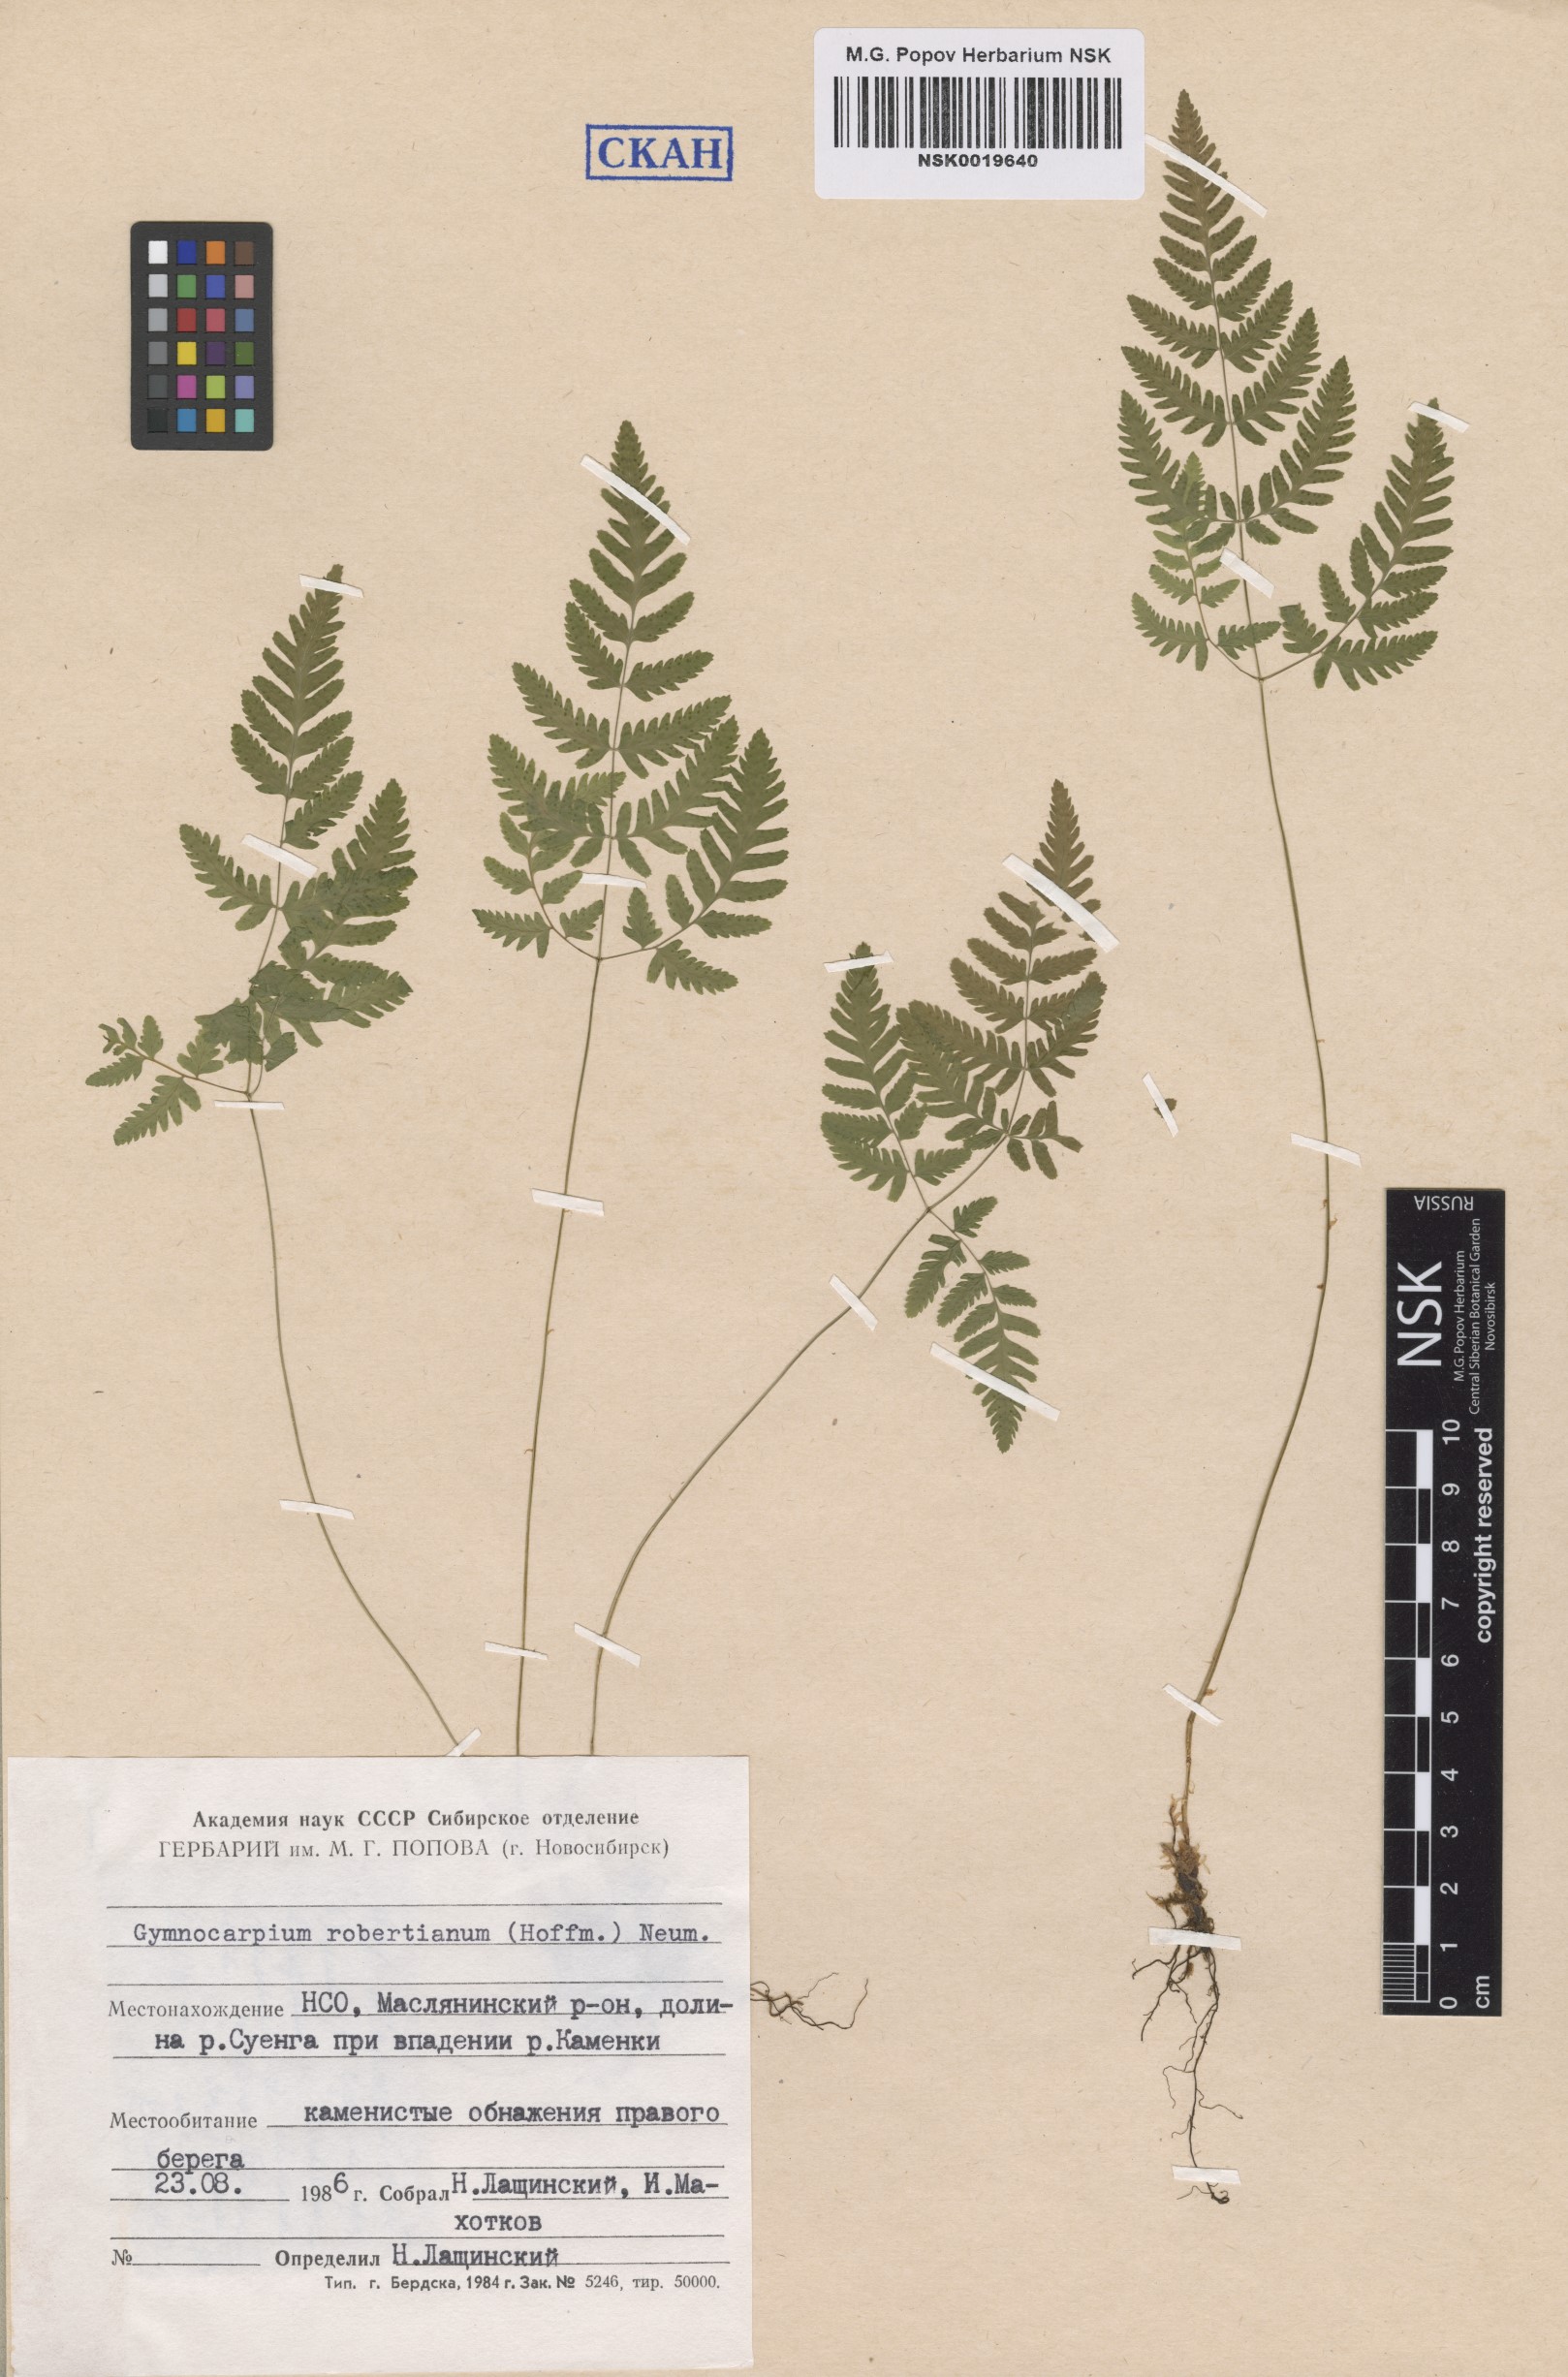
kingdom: Plantae
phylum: Tracheophyta
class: Polypodiopsida
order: Polypodiales
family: Cystopteridaceae
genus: Gymnocarpium
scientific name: Gymnocarpium robertianum
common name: Limestone fern
